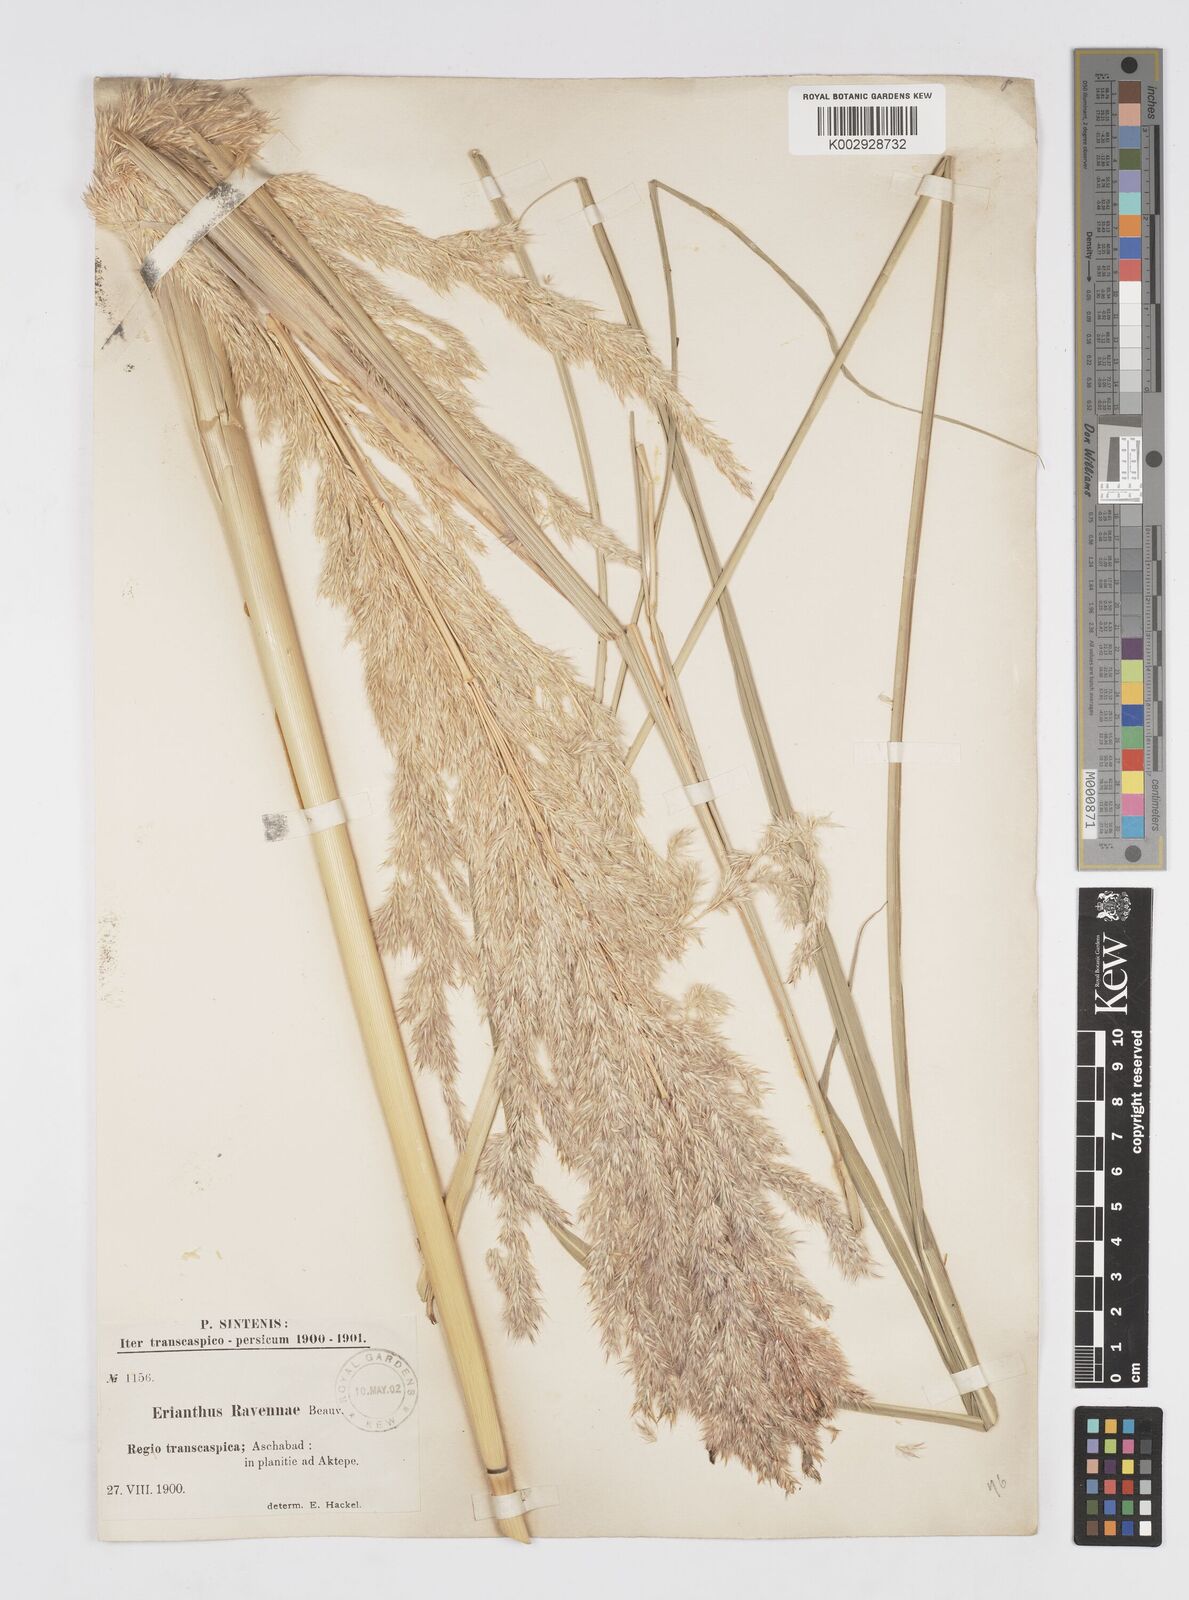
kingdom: Plantae
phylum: Tracheophyta
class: Liliopsida
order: Poales
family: Poaceae
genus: Tripidium
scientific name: Tripidium ravennae
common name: Ravenna grass
